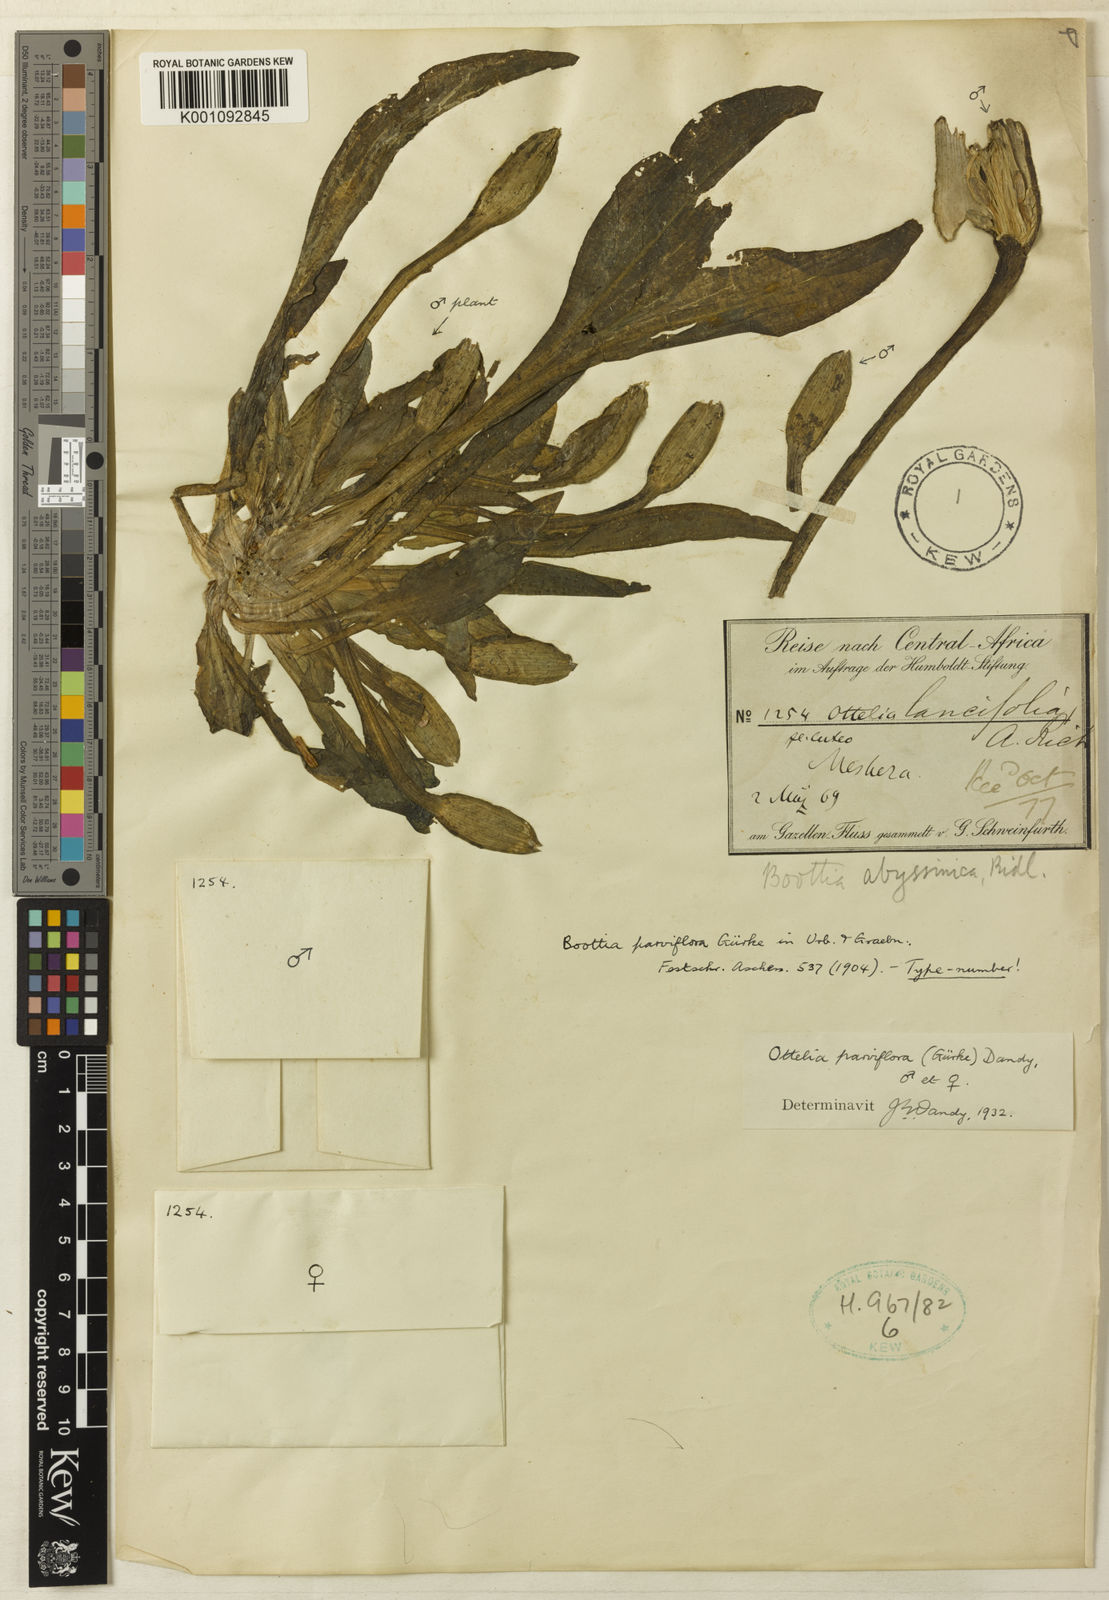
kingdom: Plantae
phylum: Tracheophyta
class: Liliopsida
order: Alismatales
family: Hydrocharitaceae
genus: Ottelia
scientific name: Ottelia
